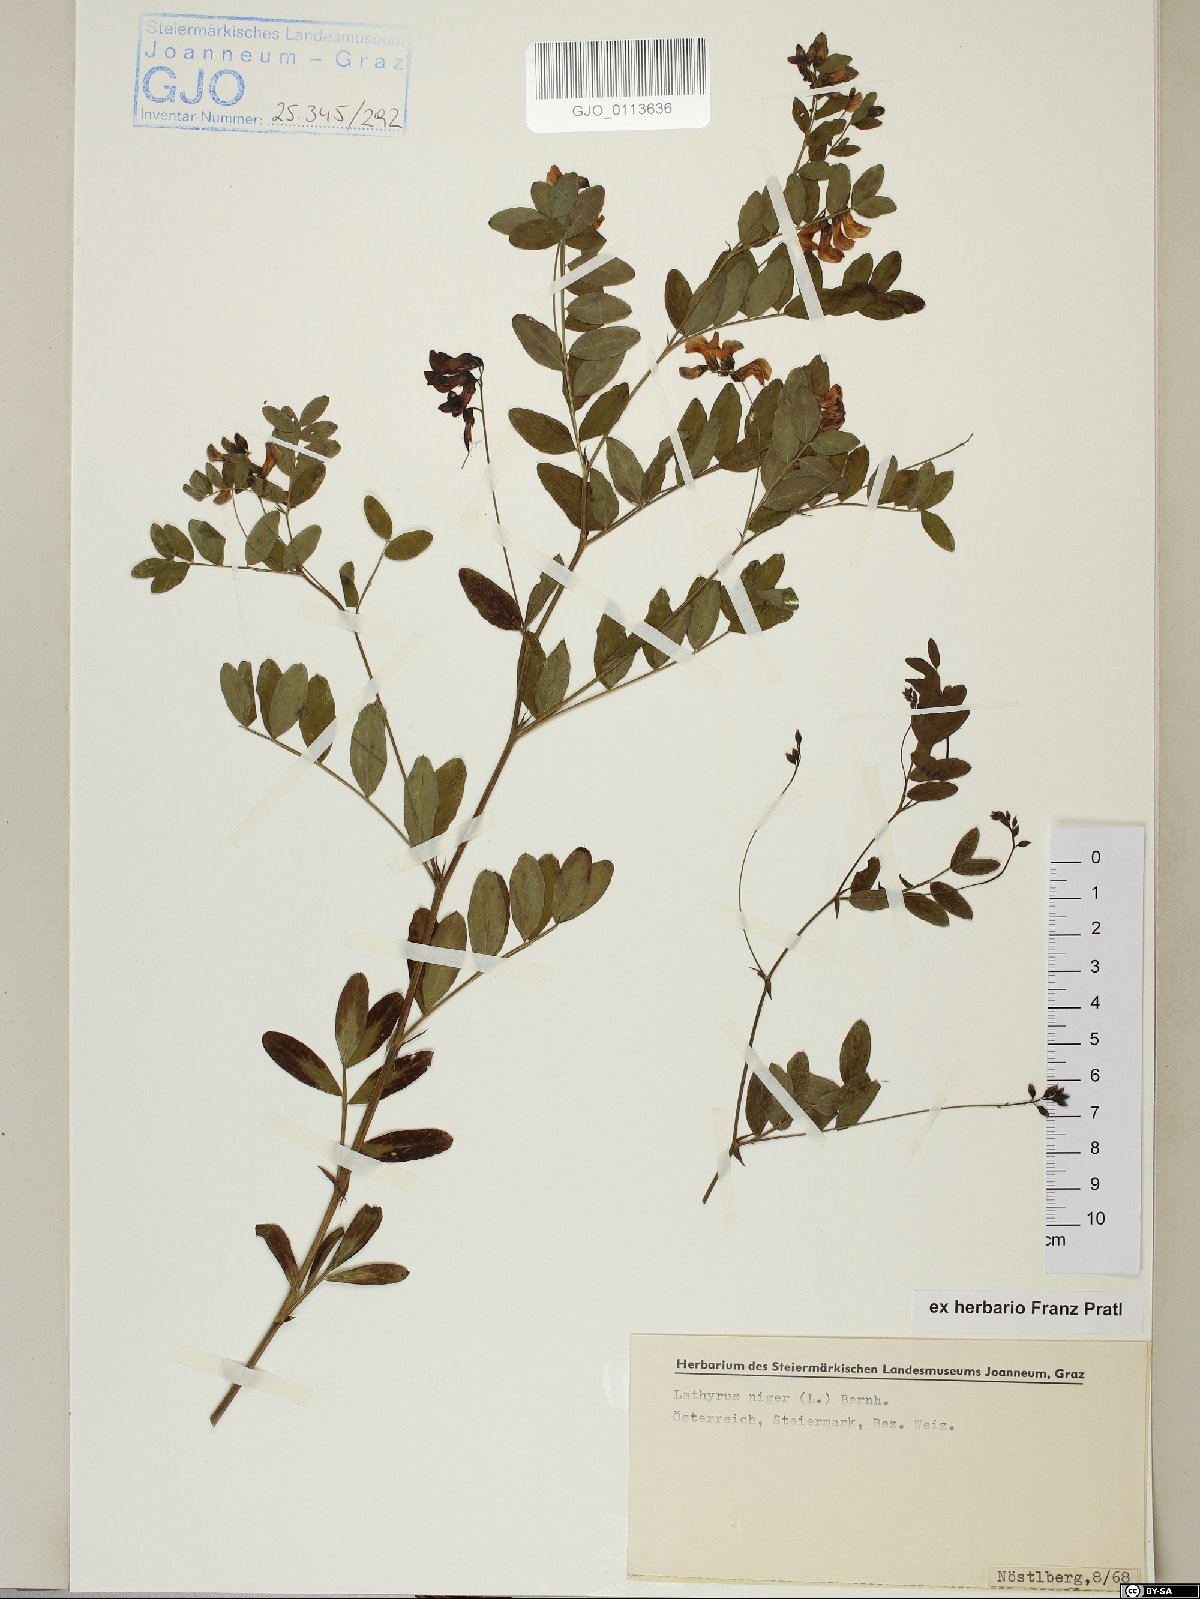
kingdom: Plantae
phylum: Tracheophyta
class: Magnoliopsida
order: Fabales
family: Fabaceae
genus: Lathyrus
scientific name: Lathyrus niger
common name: Black pea
